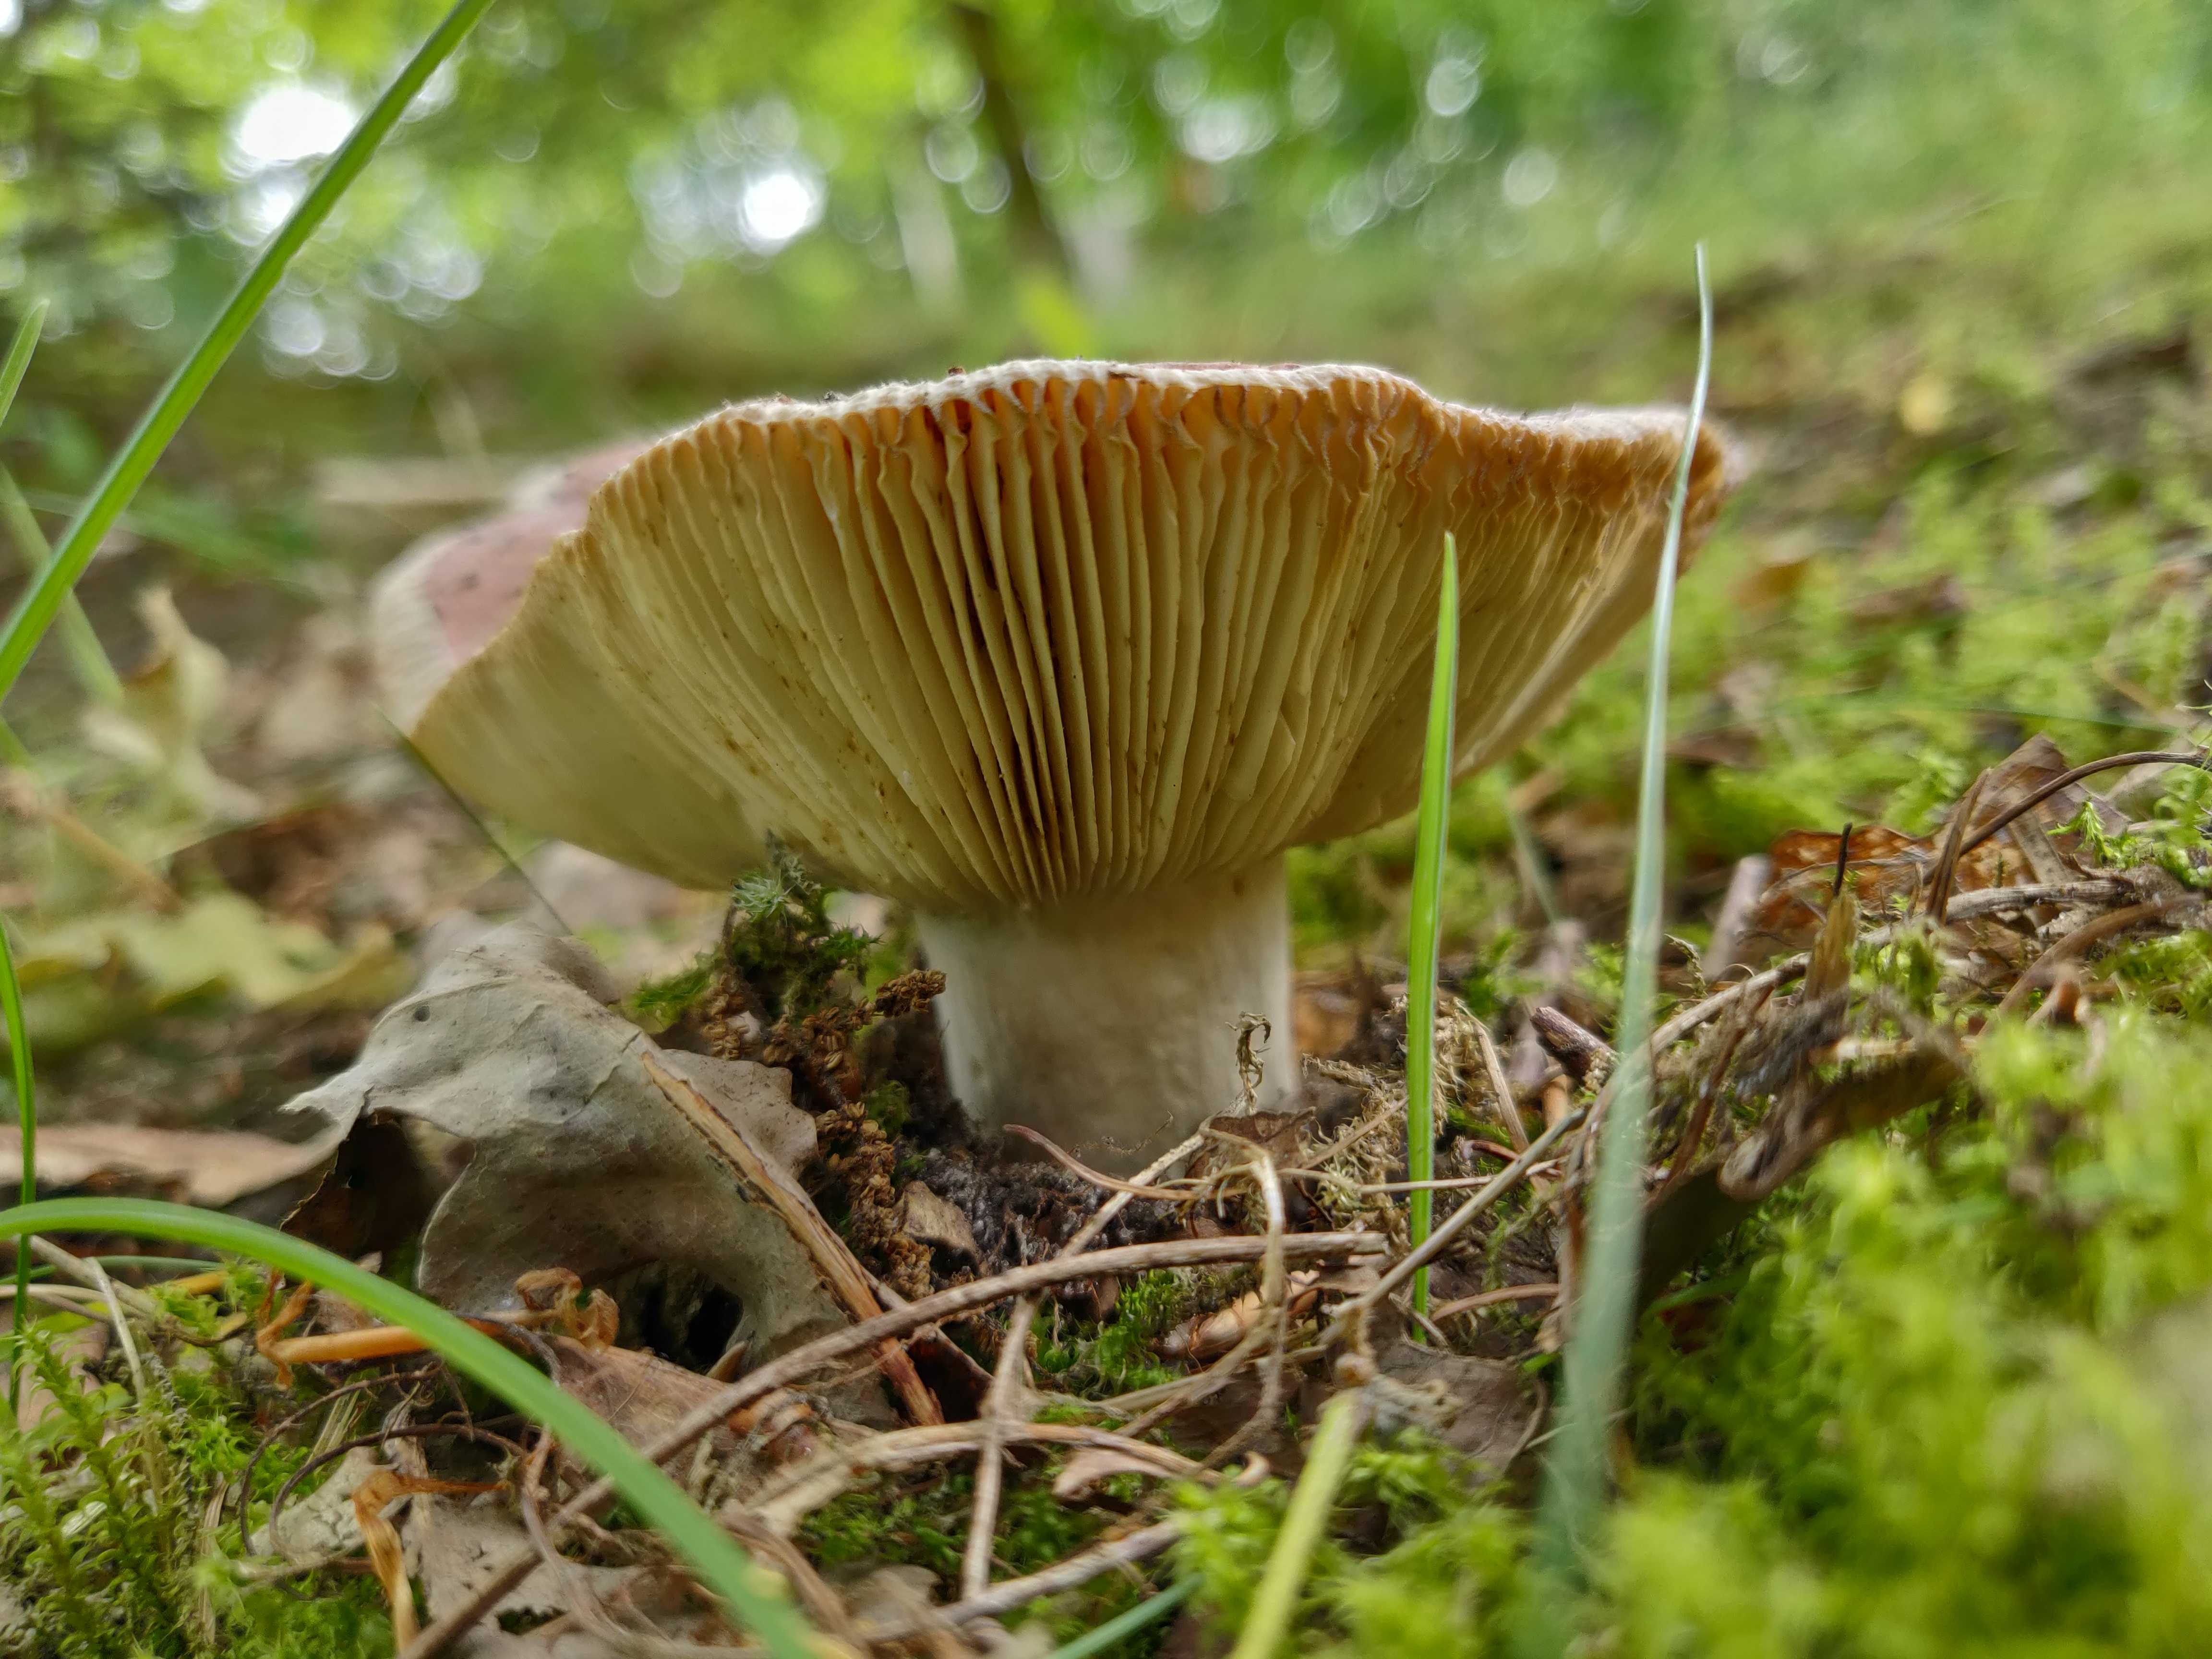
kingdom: Fungi
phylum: Basidiomycota
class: Agaricomycetes
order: Russulales
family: Russulaceae
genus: Russula
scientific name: Russula vesca
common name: spiselig skørhat
